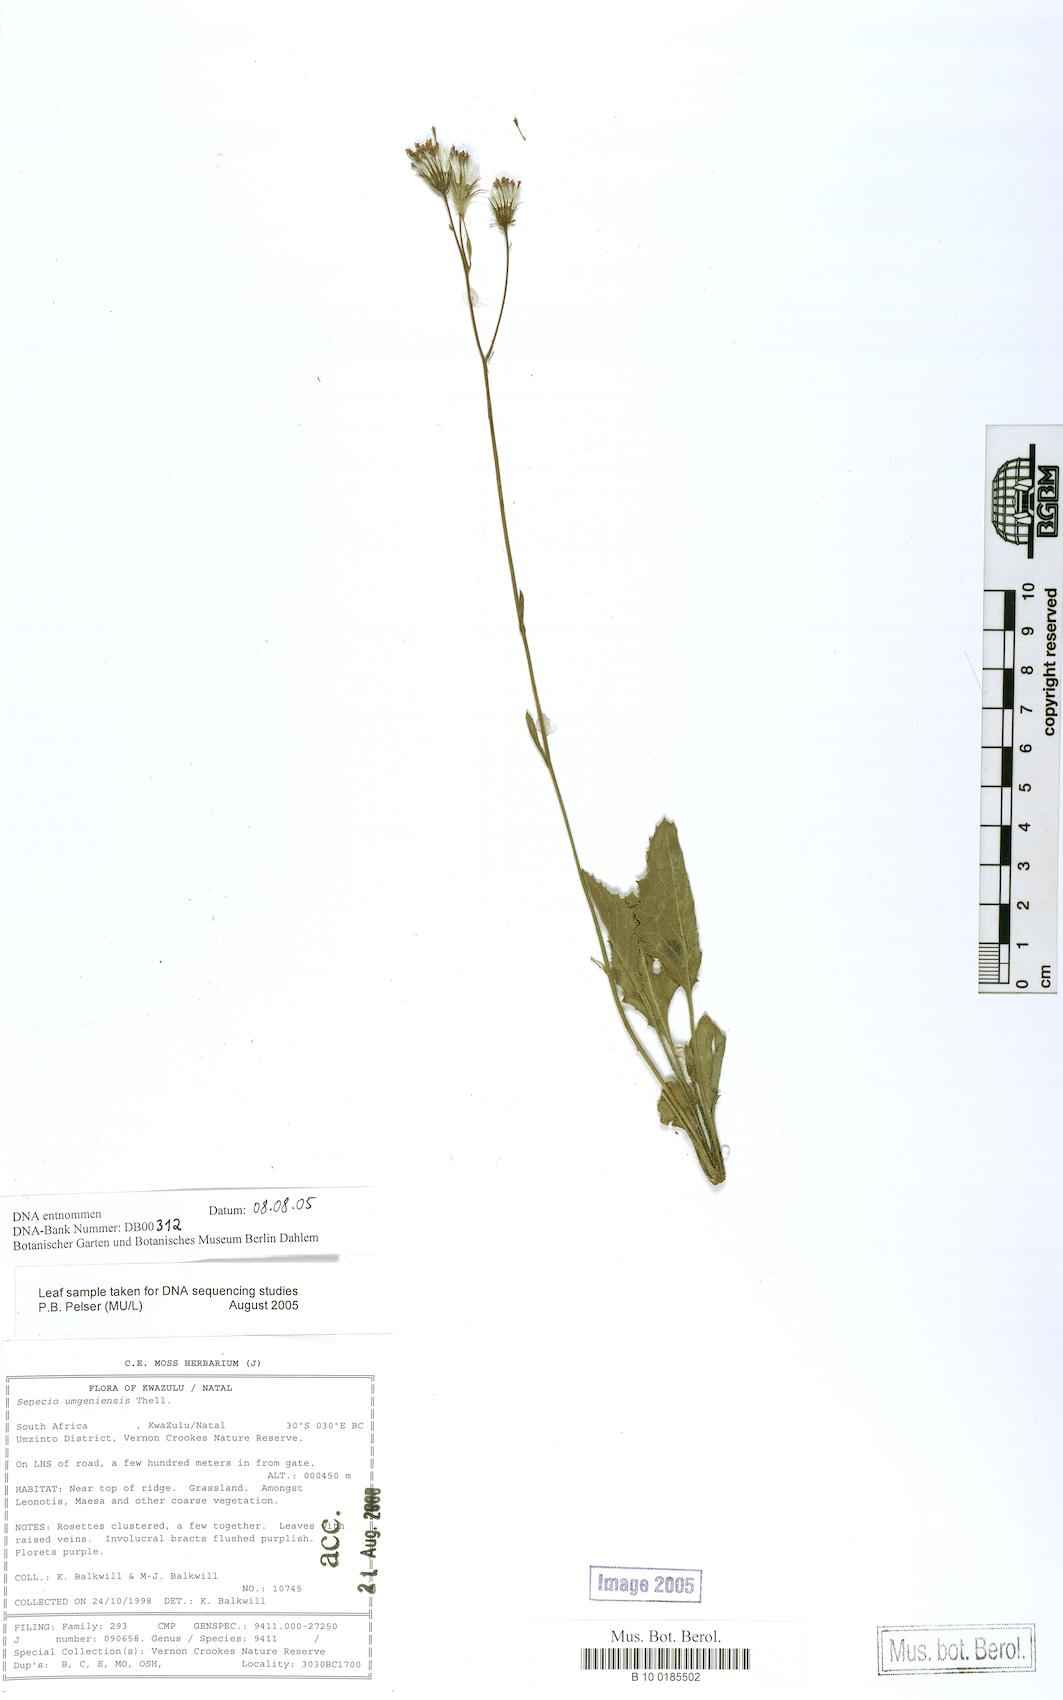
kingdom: Plantae
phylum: Tracheophyta
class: Magnoliopsida
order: Asterales
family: Asteraceae
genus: Senecio
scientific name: Senecio umgeniensis
